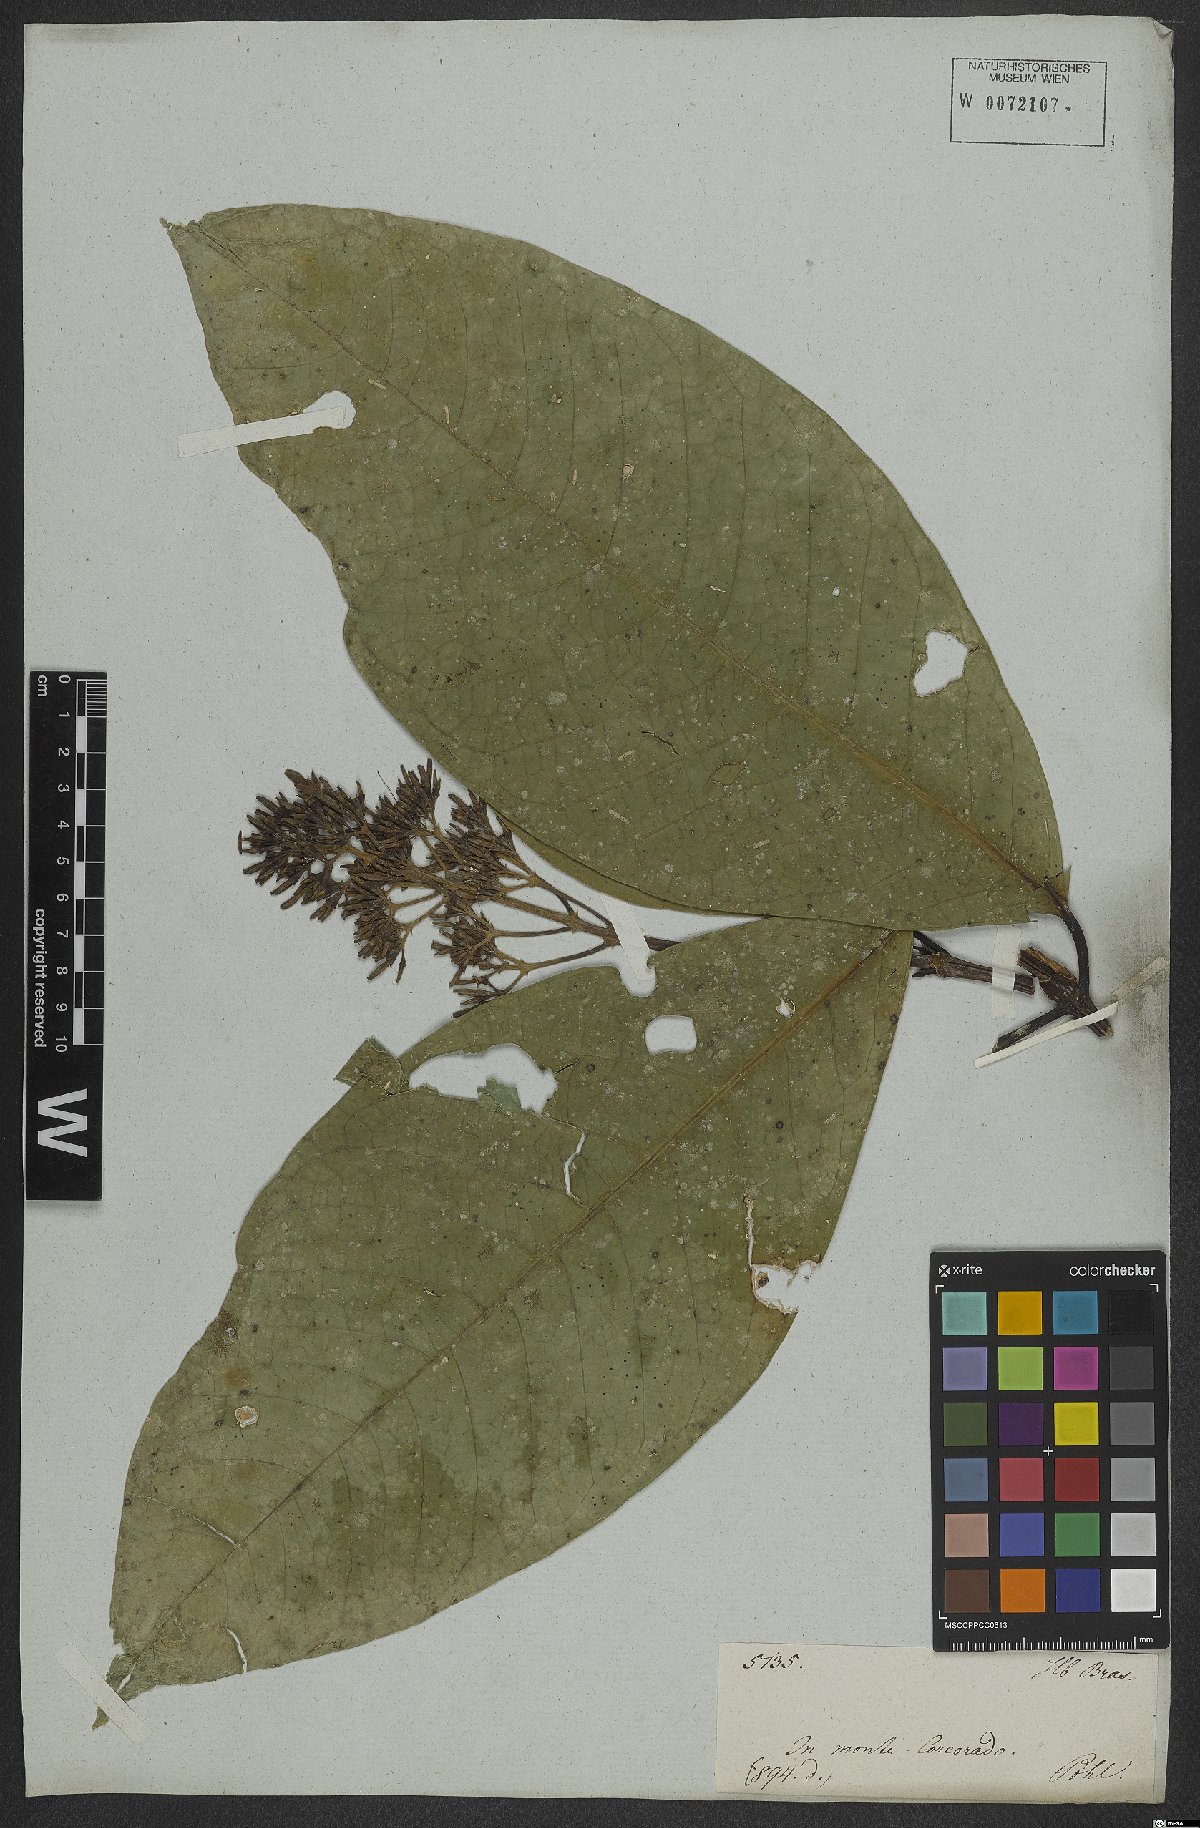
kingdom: Plantae
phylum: Tracheophyta
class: Magnoliopsida
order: Gentianales
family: Rubiaceae
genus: Coussarea
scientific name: Coussarea nemoralis
